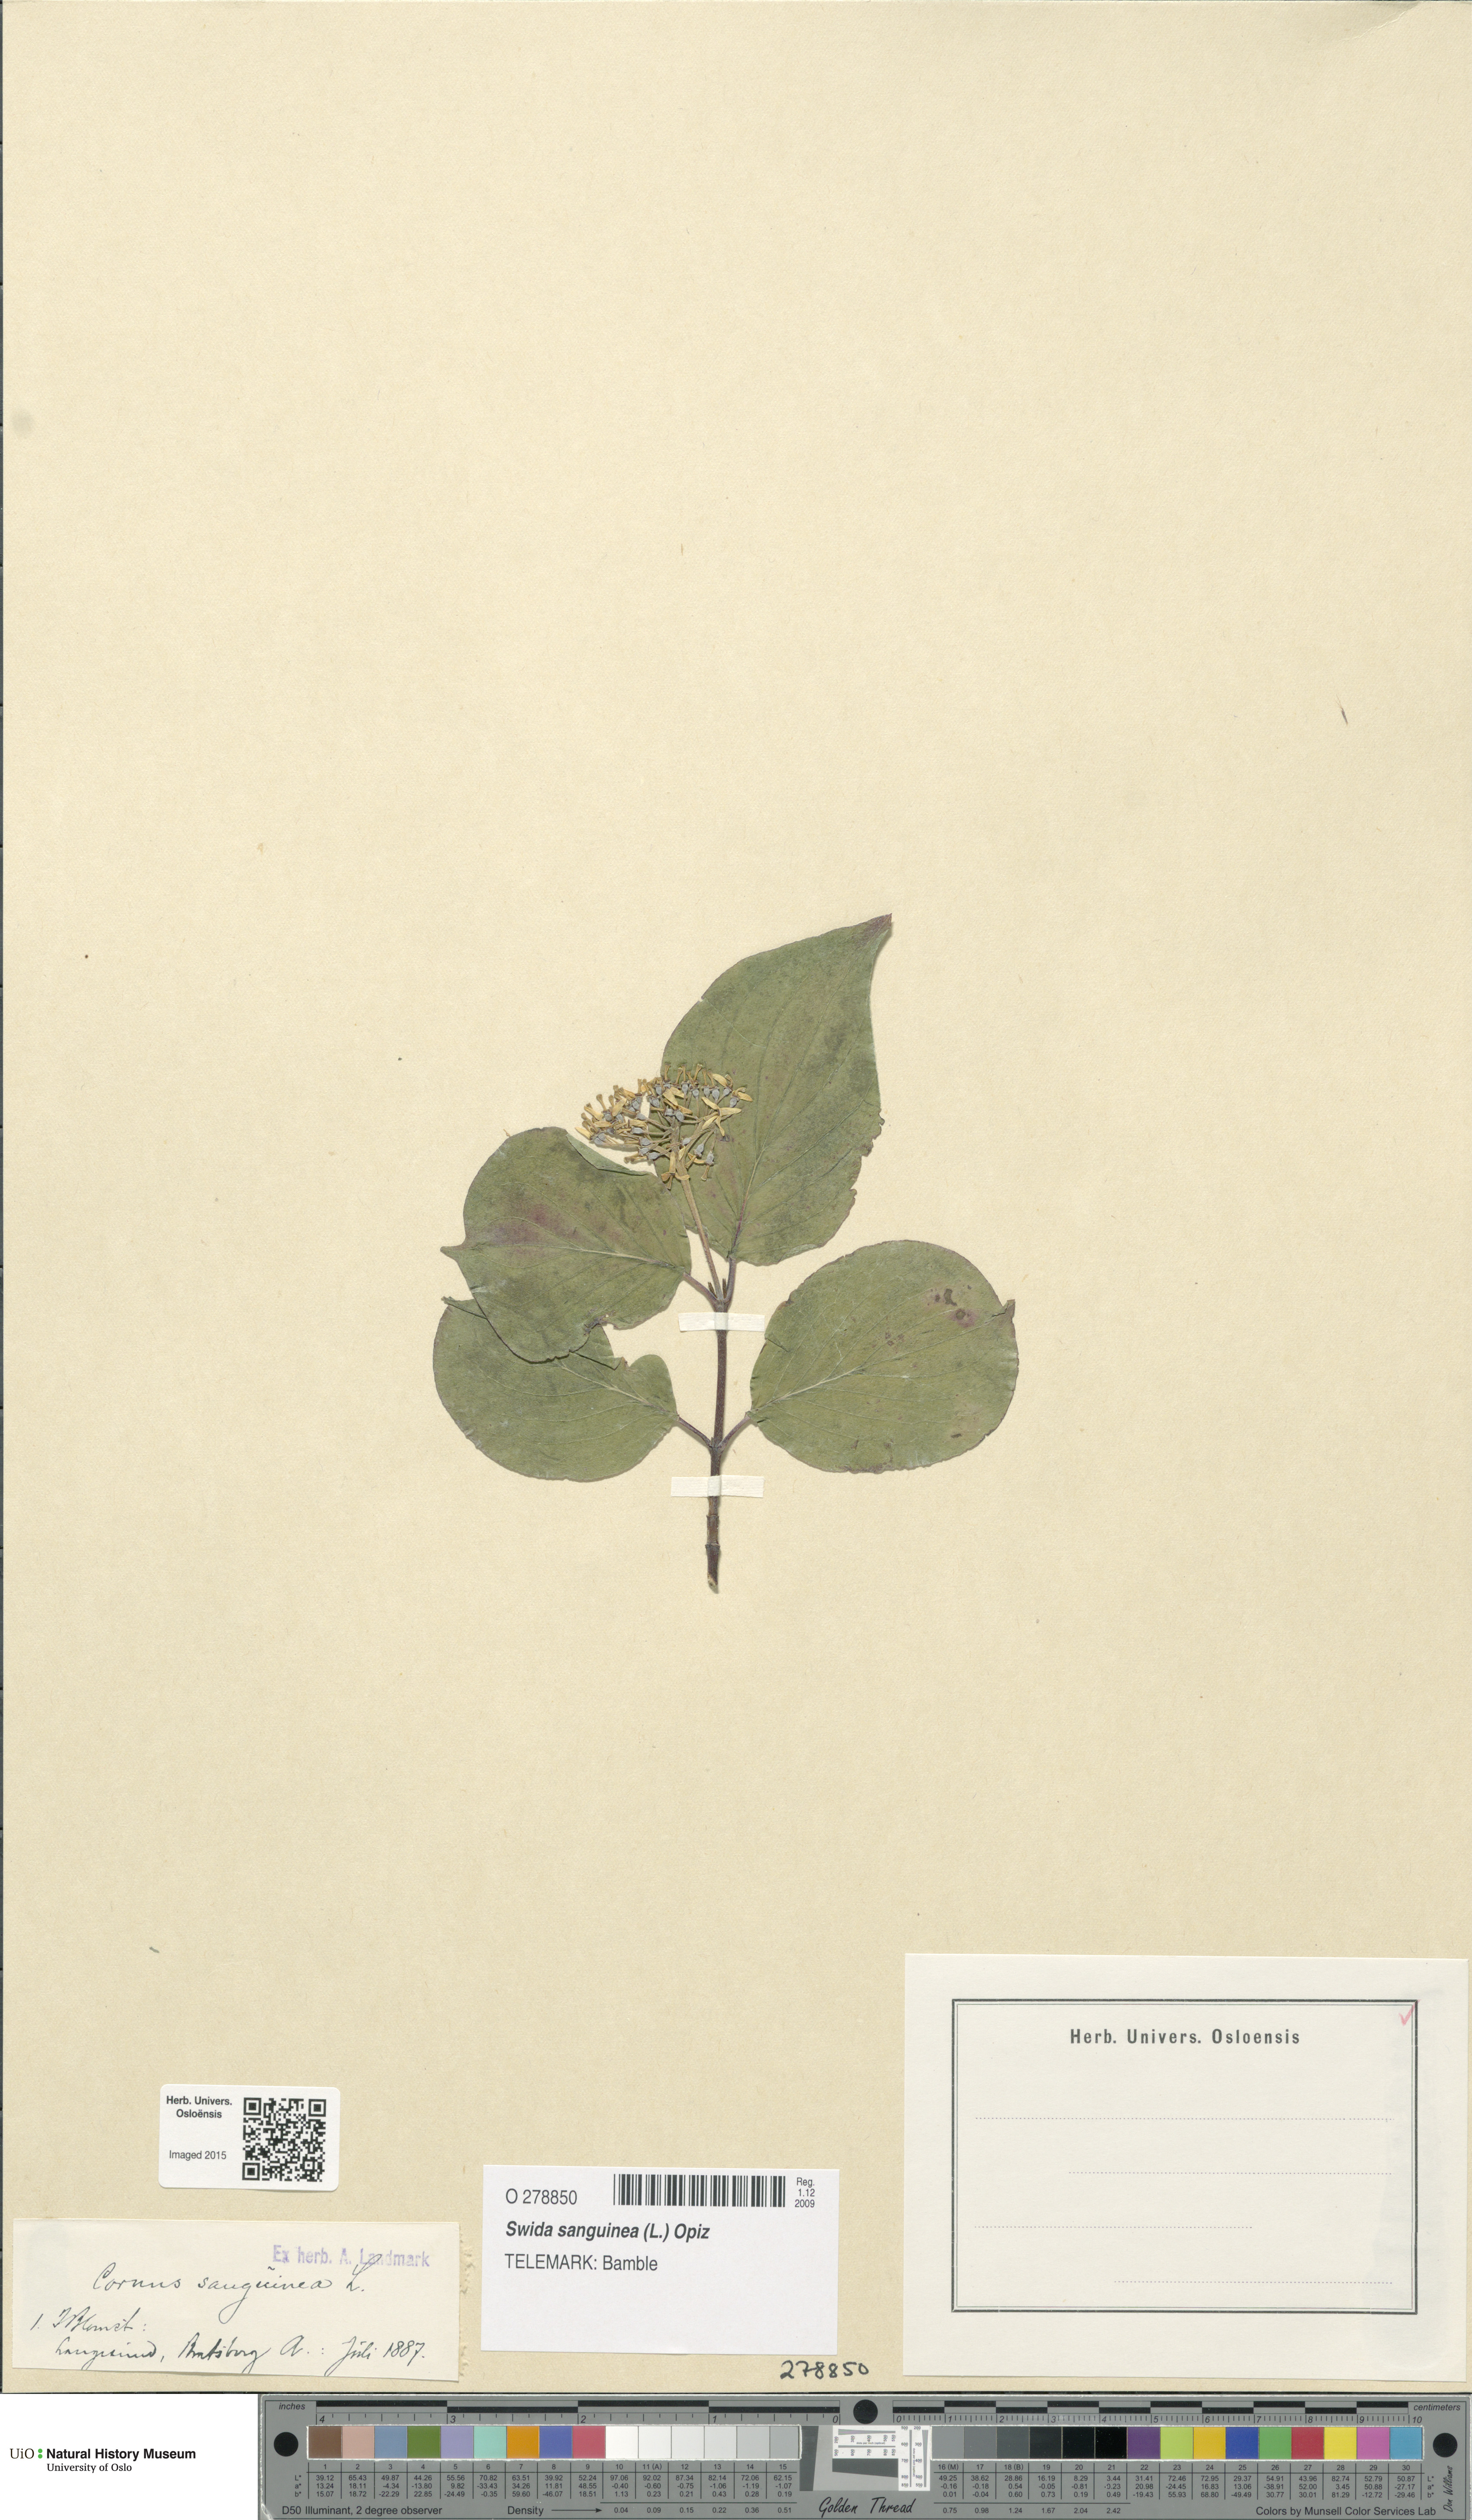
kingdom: Plantae
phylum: Tracheophyta
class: Magnoliopsida
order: Cornales
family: Cornaceae
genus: Cornus
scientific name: Cornus sanguinea
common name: Dogwood
